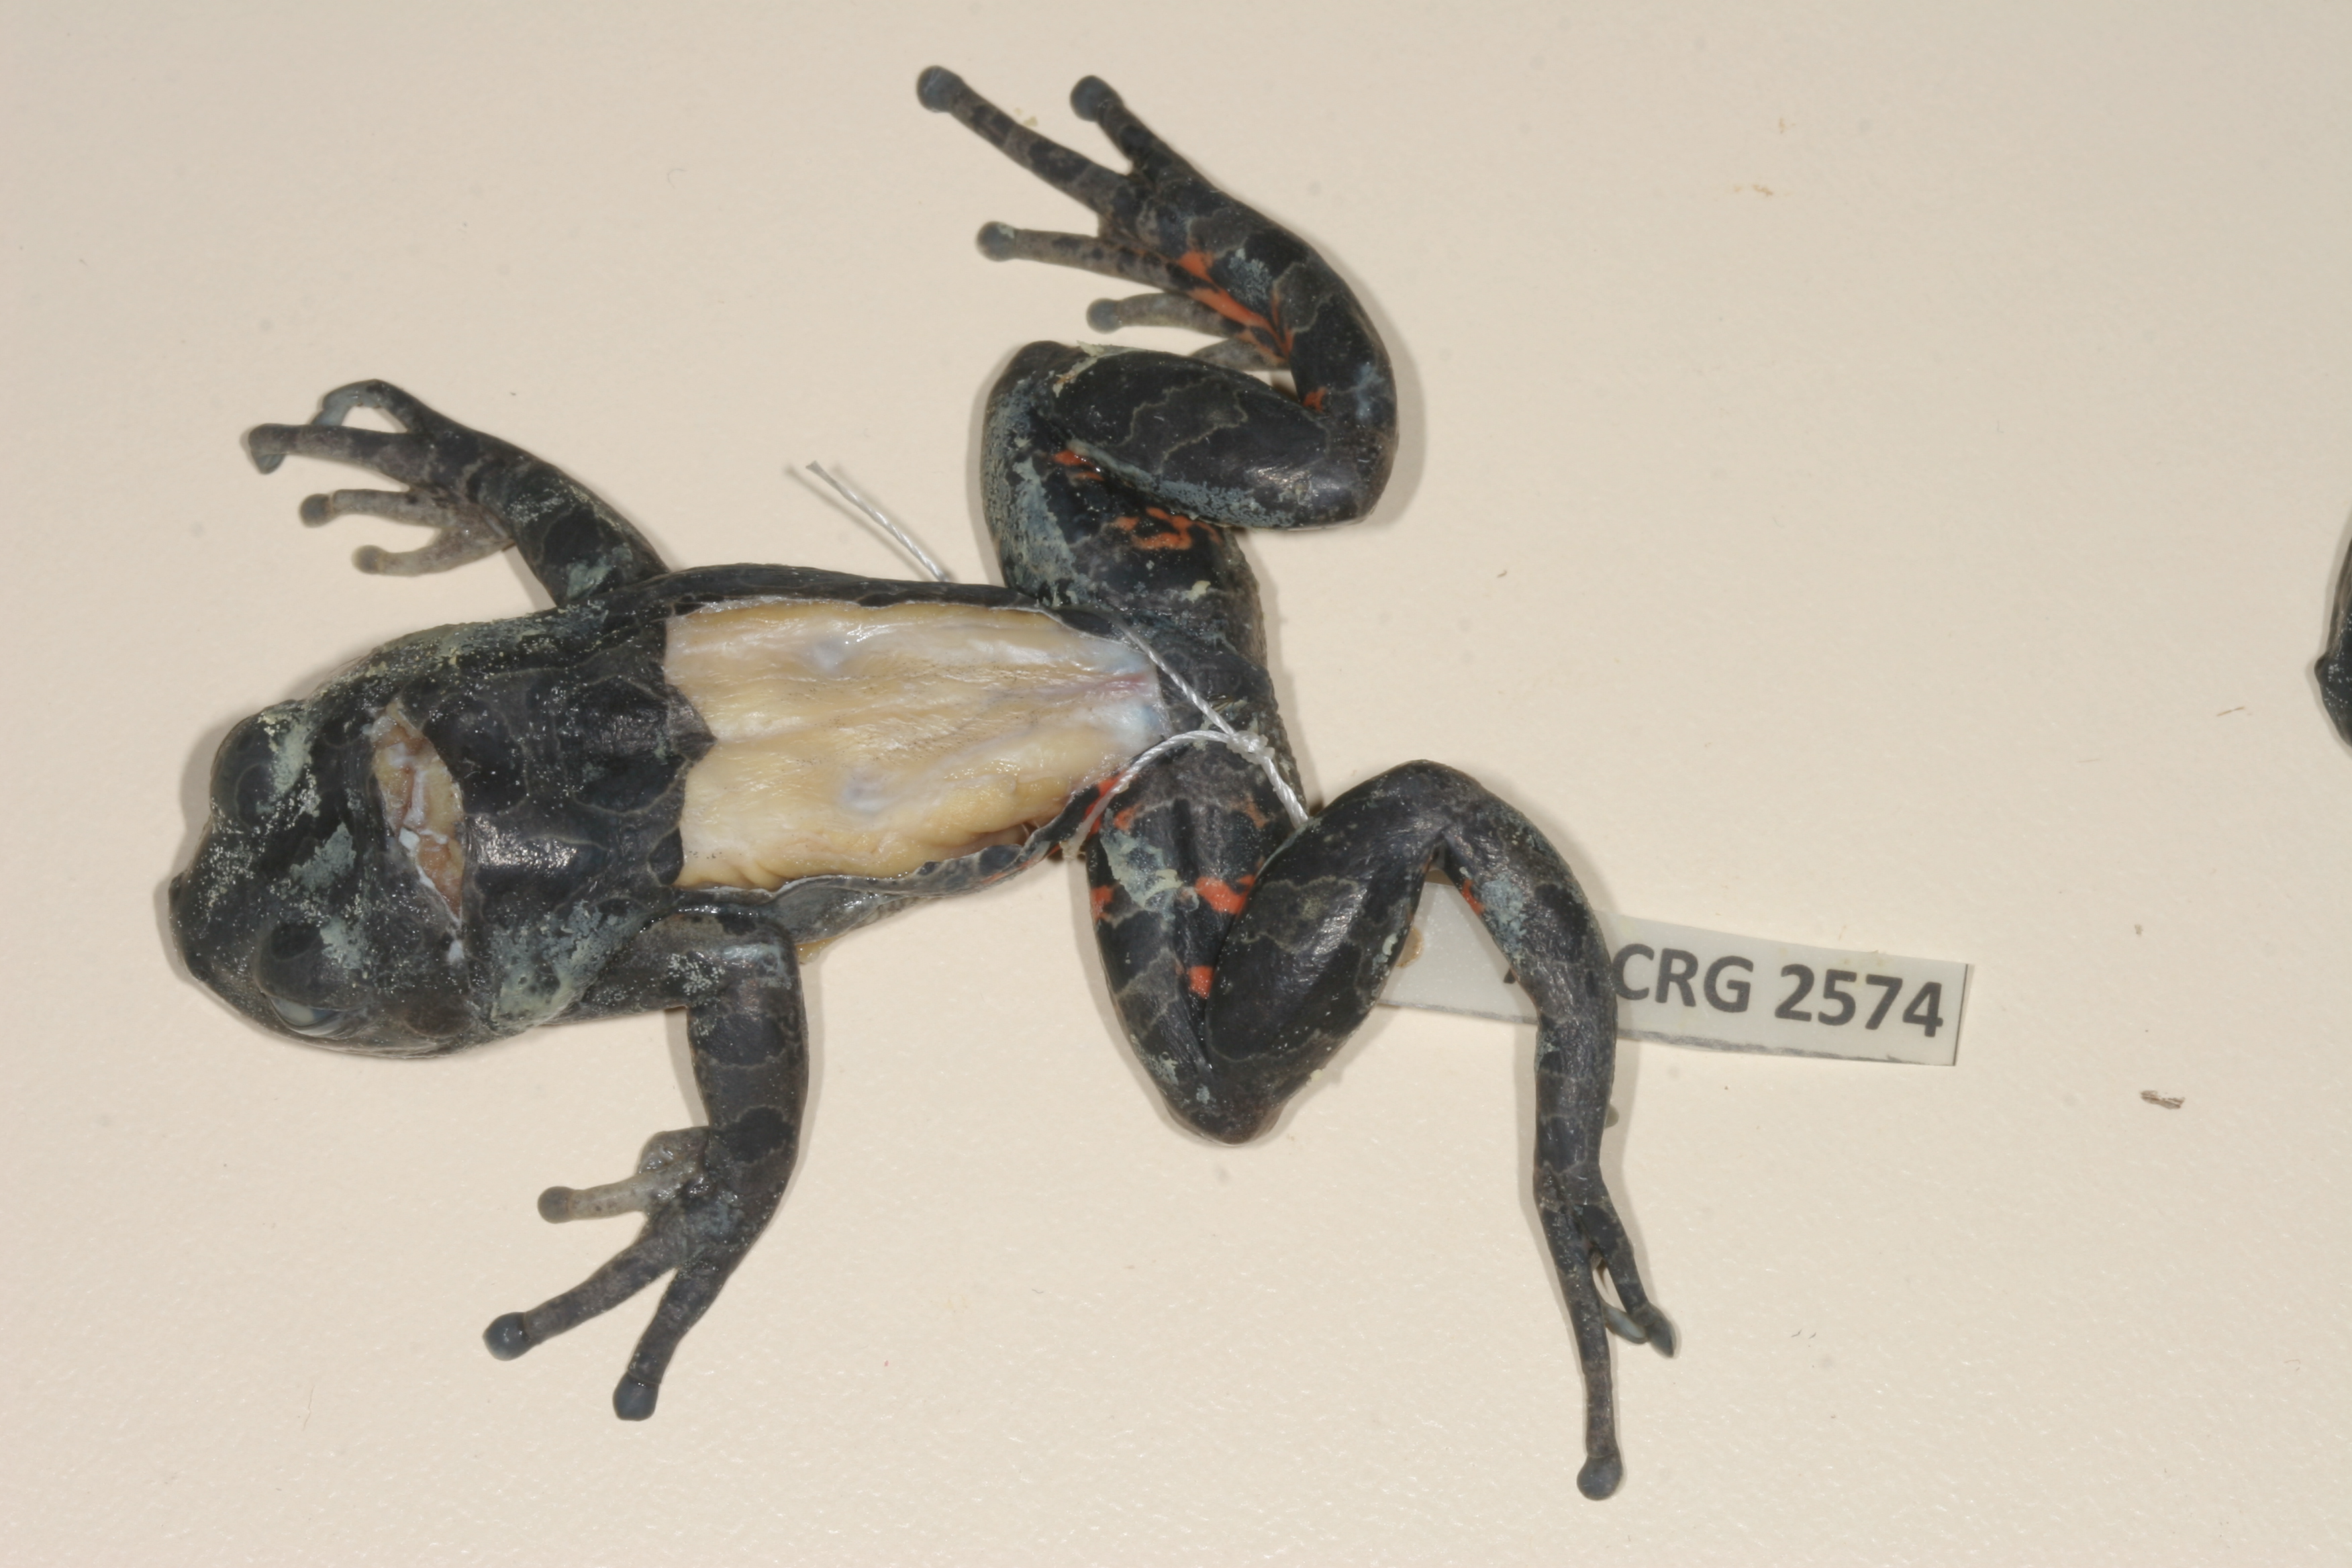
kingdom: Animalia
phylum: Chordata
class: Amphibia
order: Anura
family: Hyperoliidae
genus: Phlyctimantis
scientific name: Phlyctimantis maculatus
